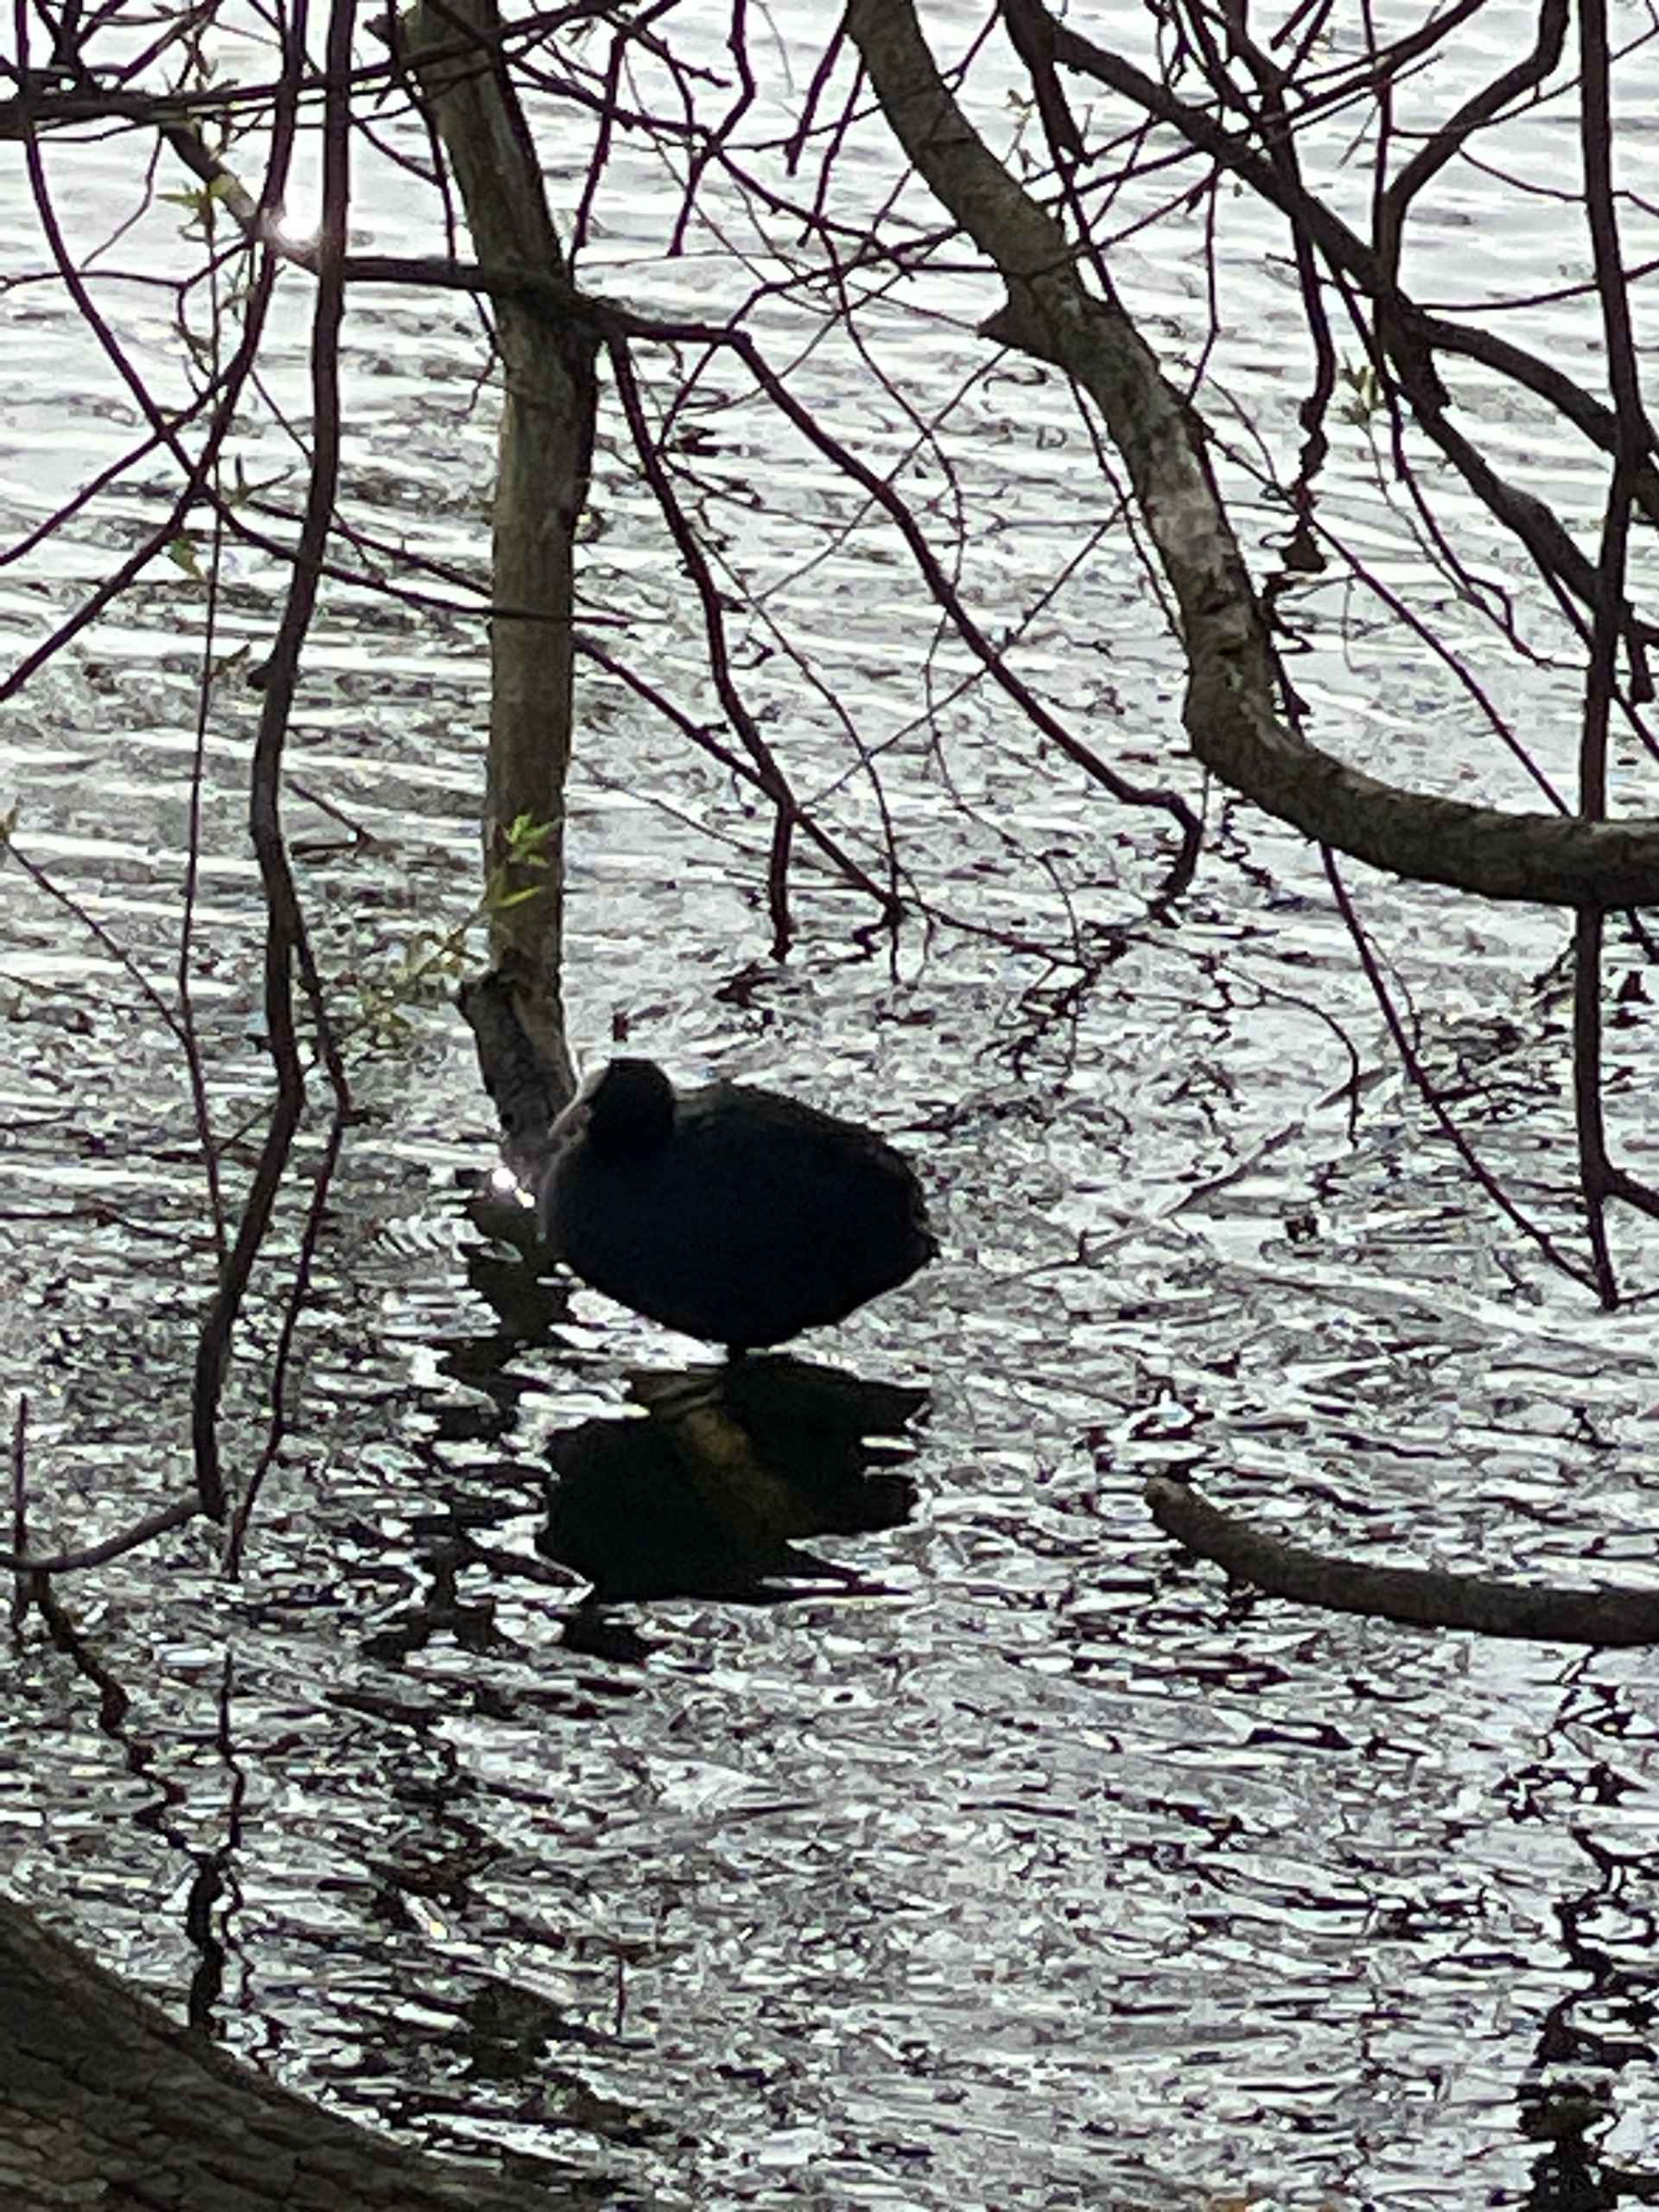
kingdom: Animalia
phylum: Chordata
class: Aves
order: Gruiformes
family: Rallidae
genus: Fulica
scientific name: Fulica atra
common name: Blishøne
